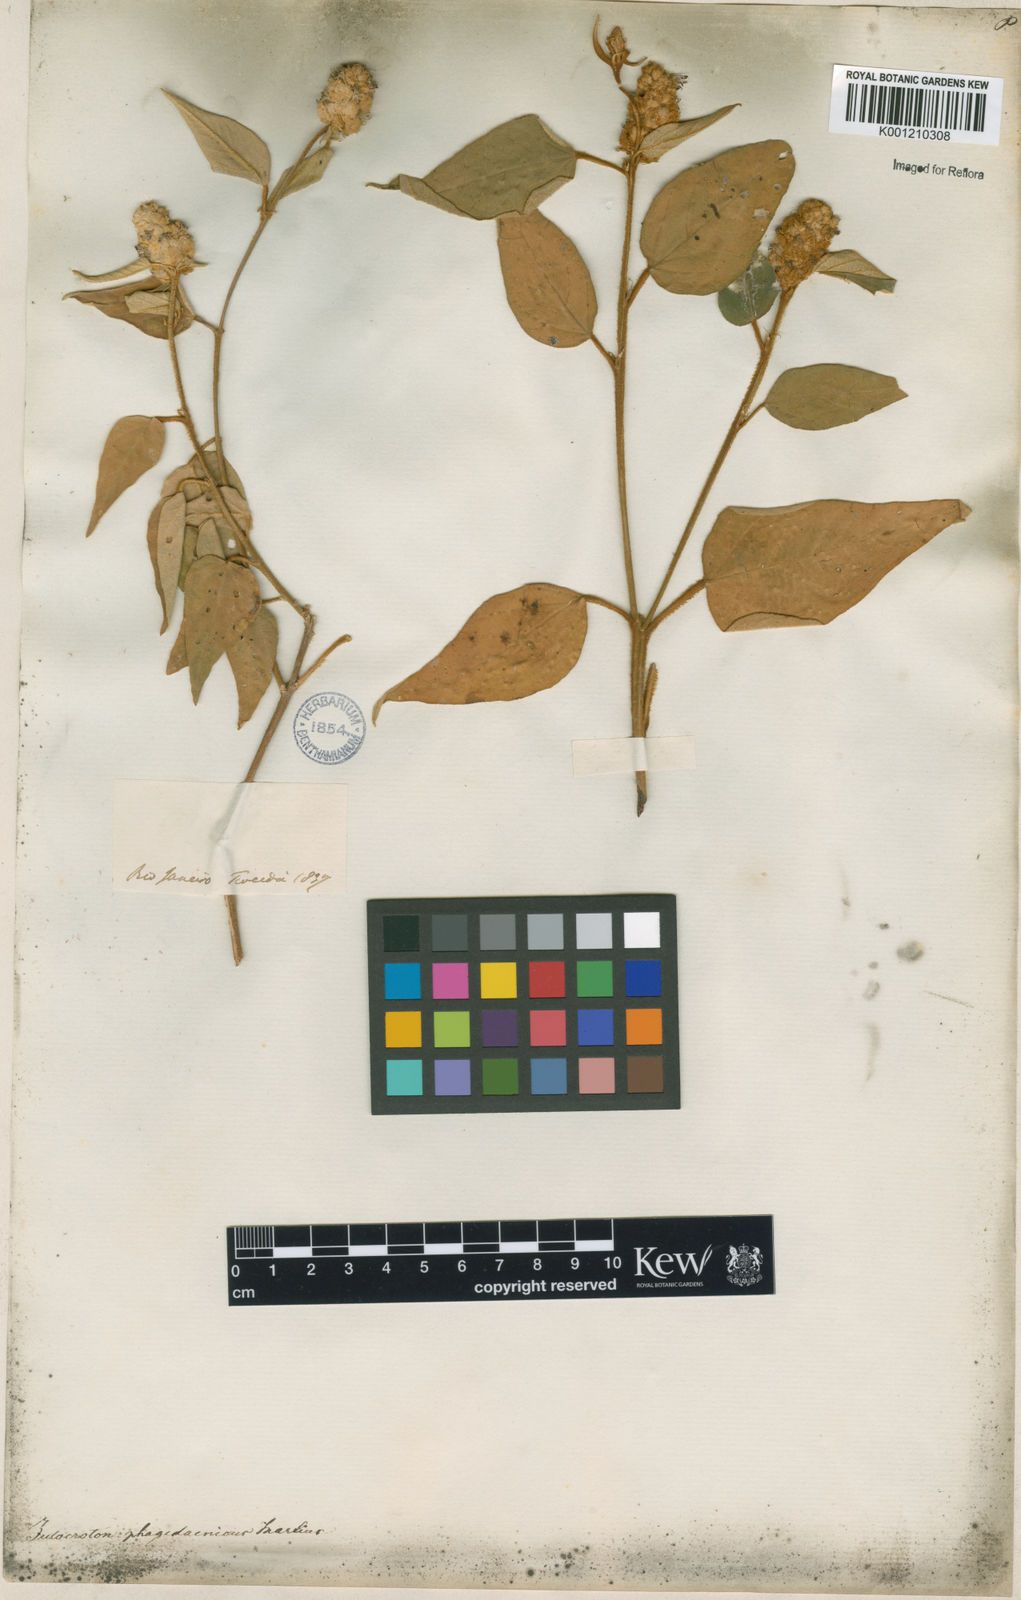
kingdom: Plantae
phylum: Tracheophyta
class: Magnoliopsida
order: Malpighiales
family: Euphorbiaceae
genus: Croton
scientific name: Croton triqueter
